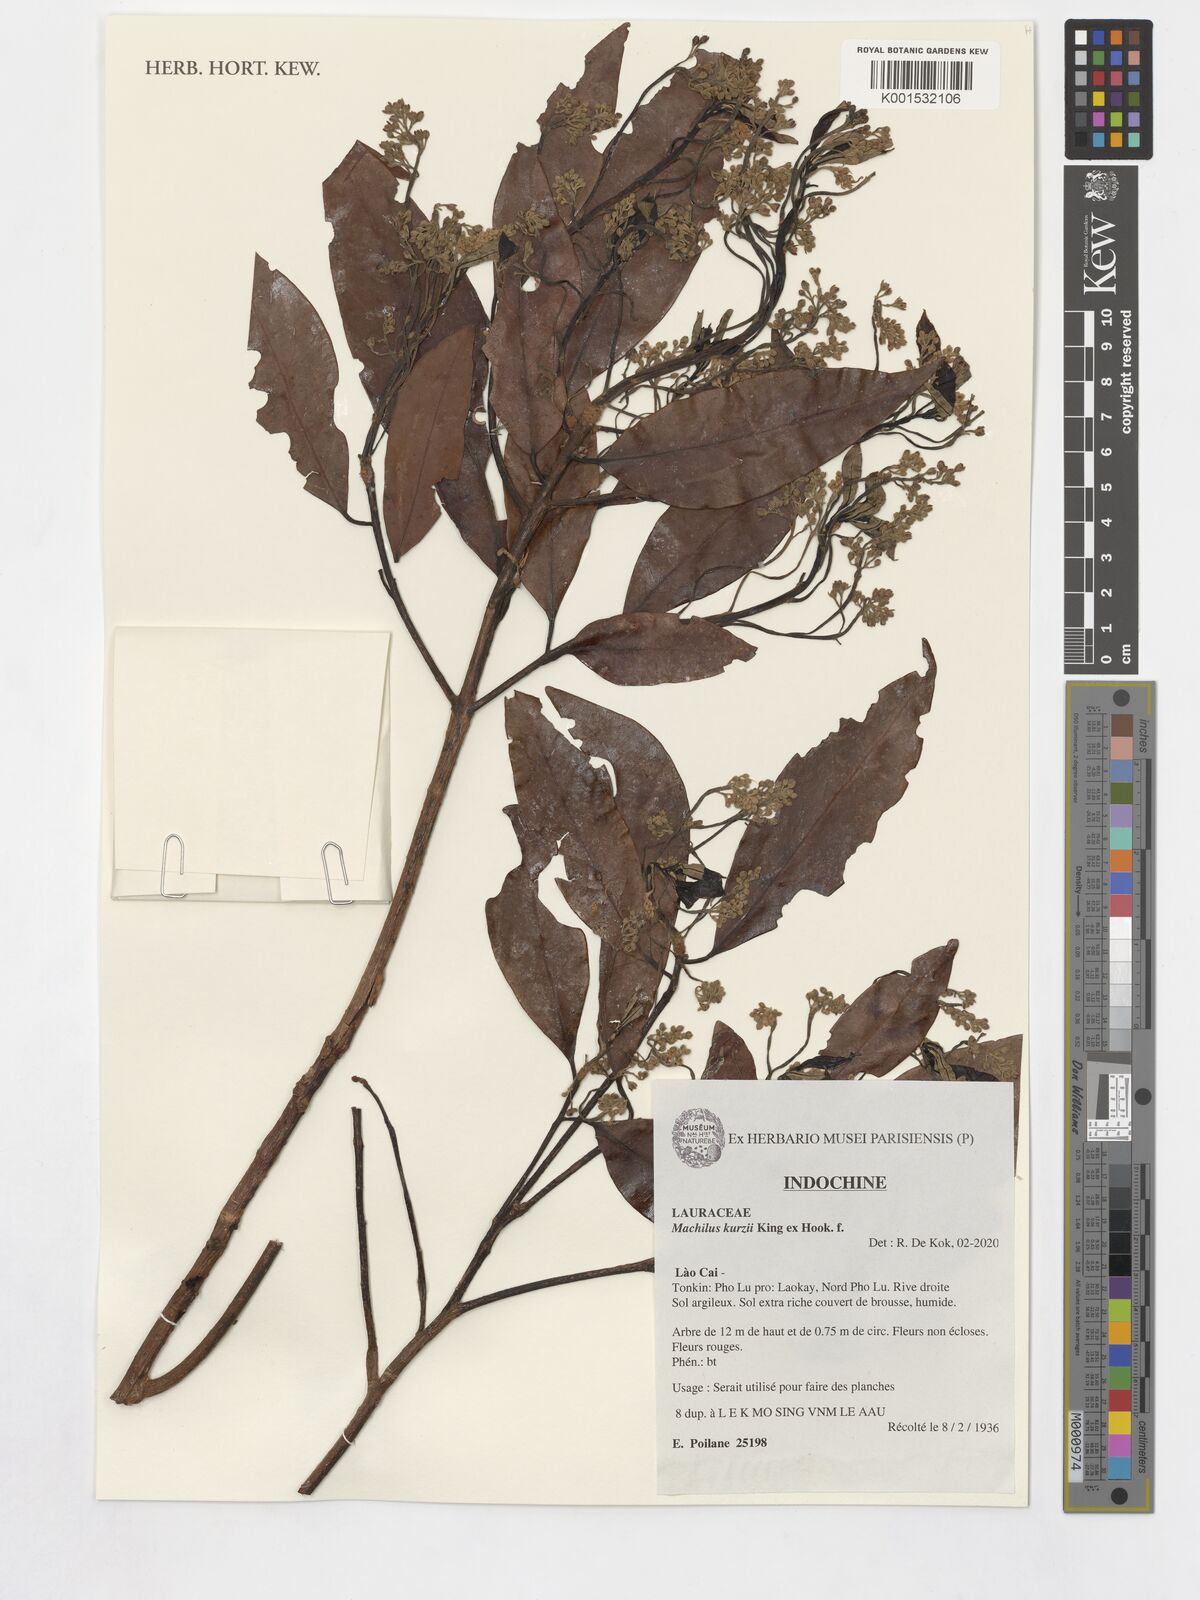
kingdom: Plantae
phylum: Tracheophyta
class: Magnoliopsida
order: Laurales
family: Lauraceae
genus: Machilus
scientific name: Machilus kurzii
